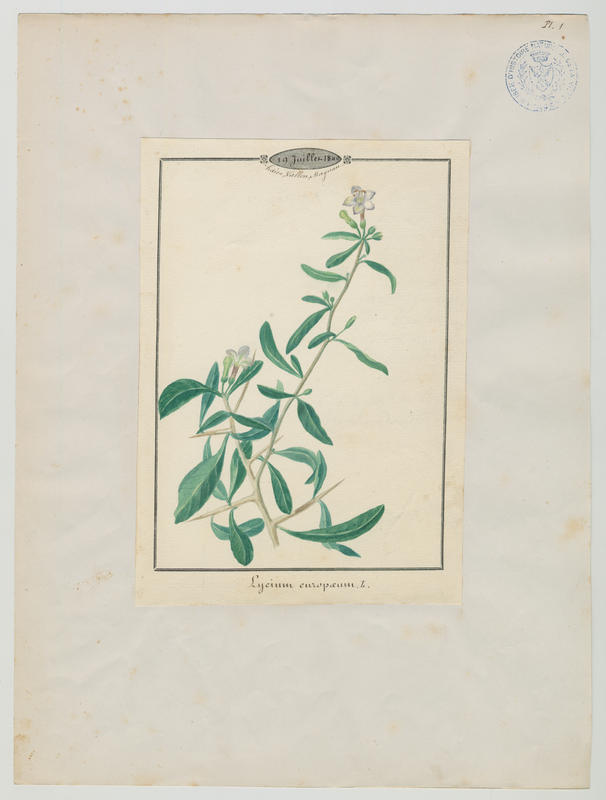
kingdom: Plantae
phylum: Tracheophyta
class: Magnoliopsida
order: Solanales
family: Solanaceae
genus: Lycium
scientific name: Lycium europaeum
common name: Boxthorn
